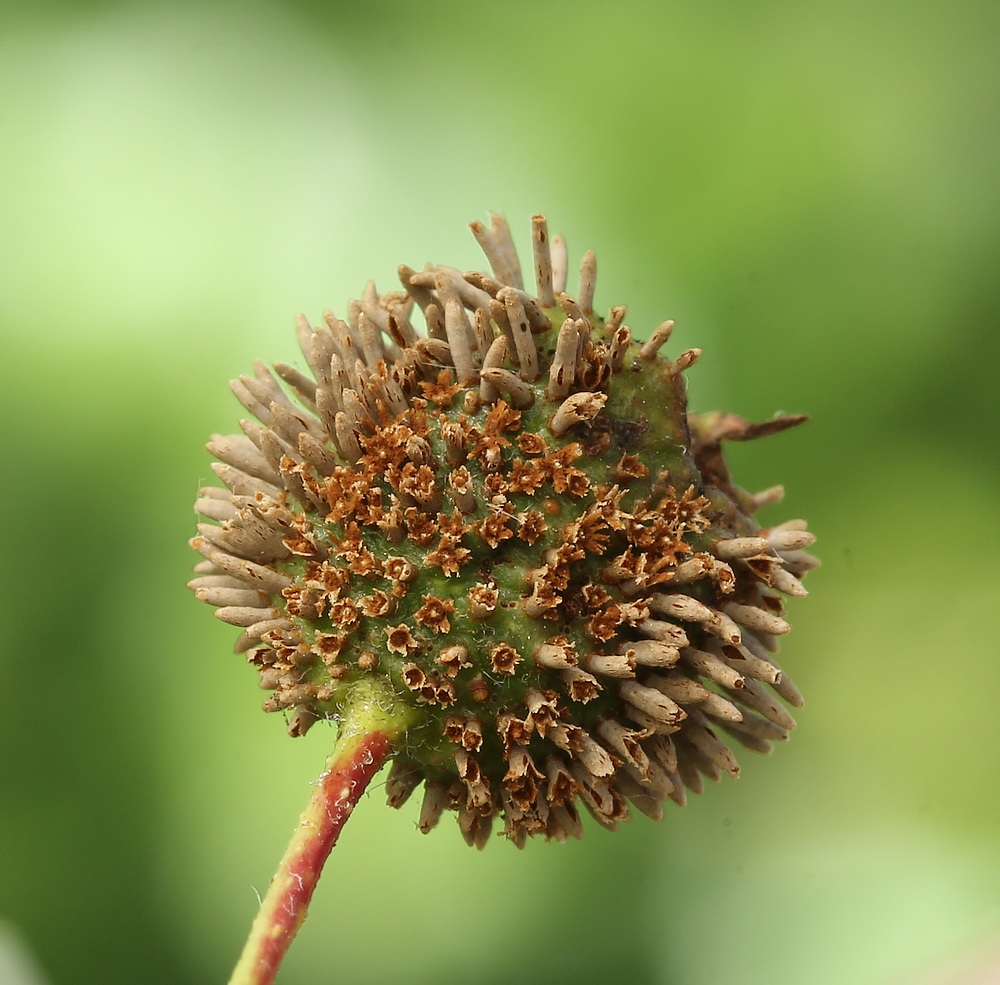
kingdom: Fungi
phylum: Basidiomycota
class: Pucciniomycetes
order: Pucciniales
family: Gymnosporangiaceae
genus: Gymnosporangium
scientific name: Gymnosporangium clavariiforme
